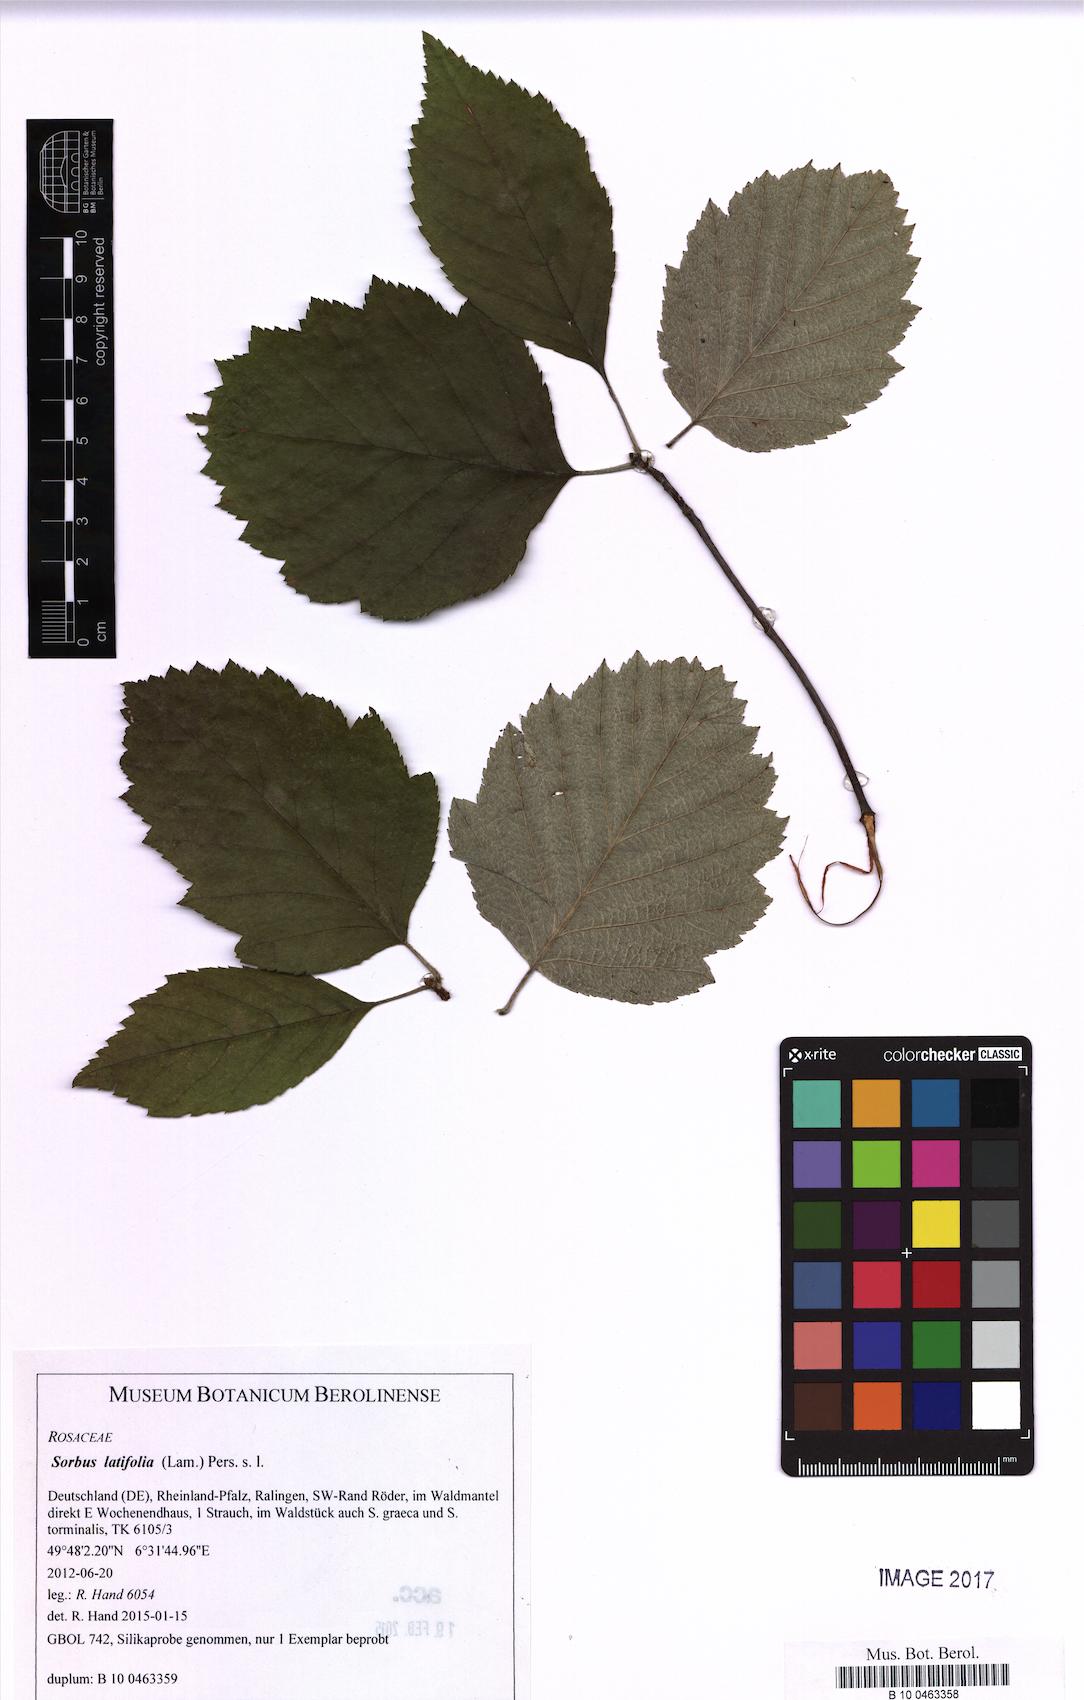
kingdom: Plantae
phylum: Tracheophyta
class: Magnoliopsida
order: Rosales
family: Rosaceae
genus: Karpatiosorbus
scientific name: Karpatiosorbus latifolia
